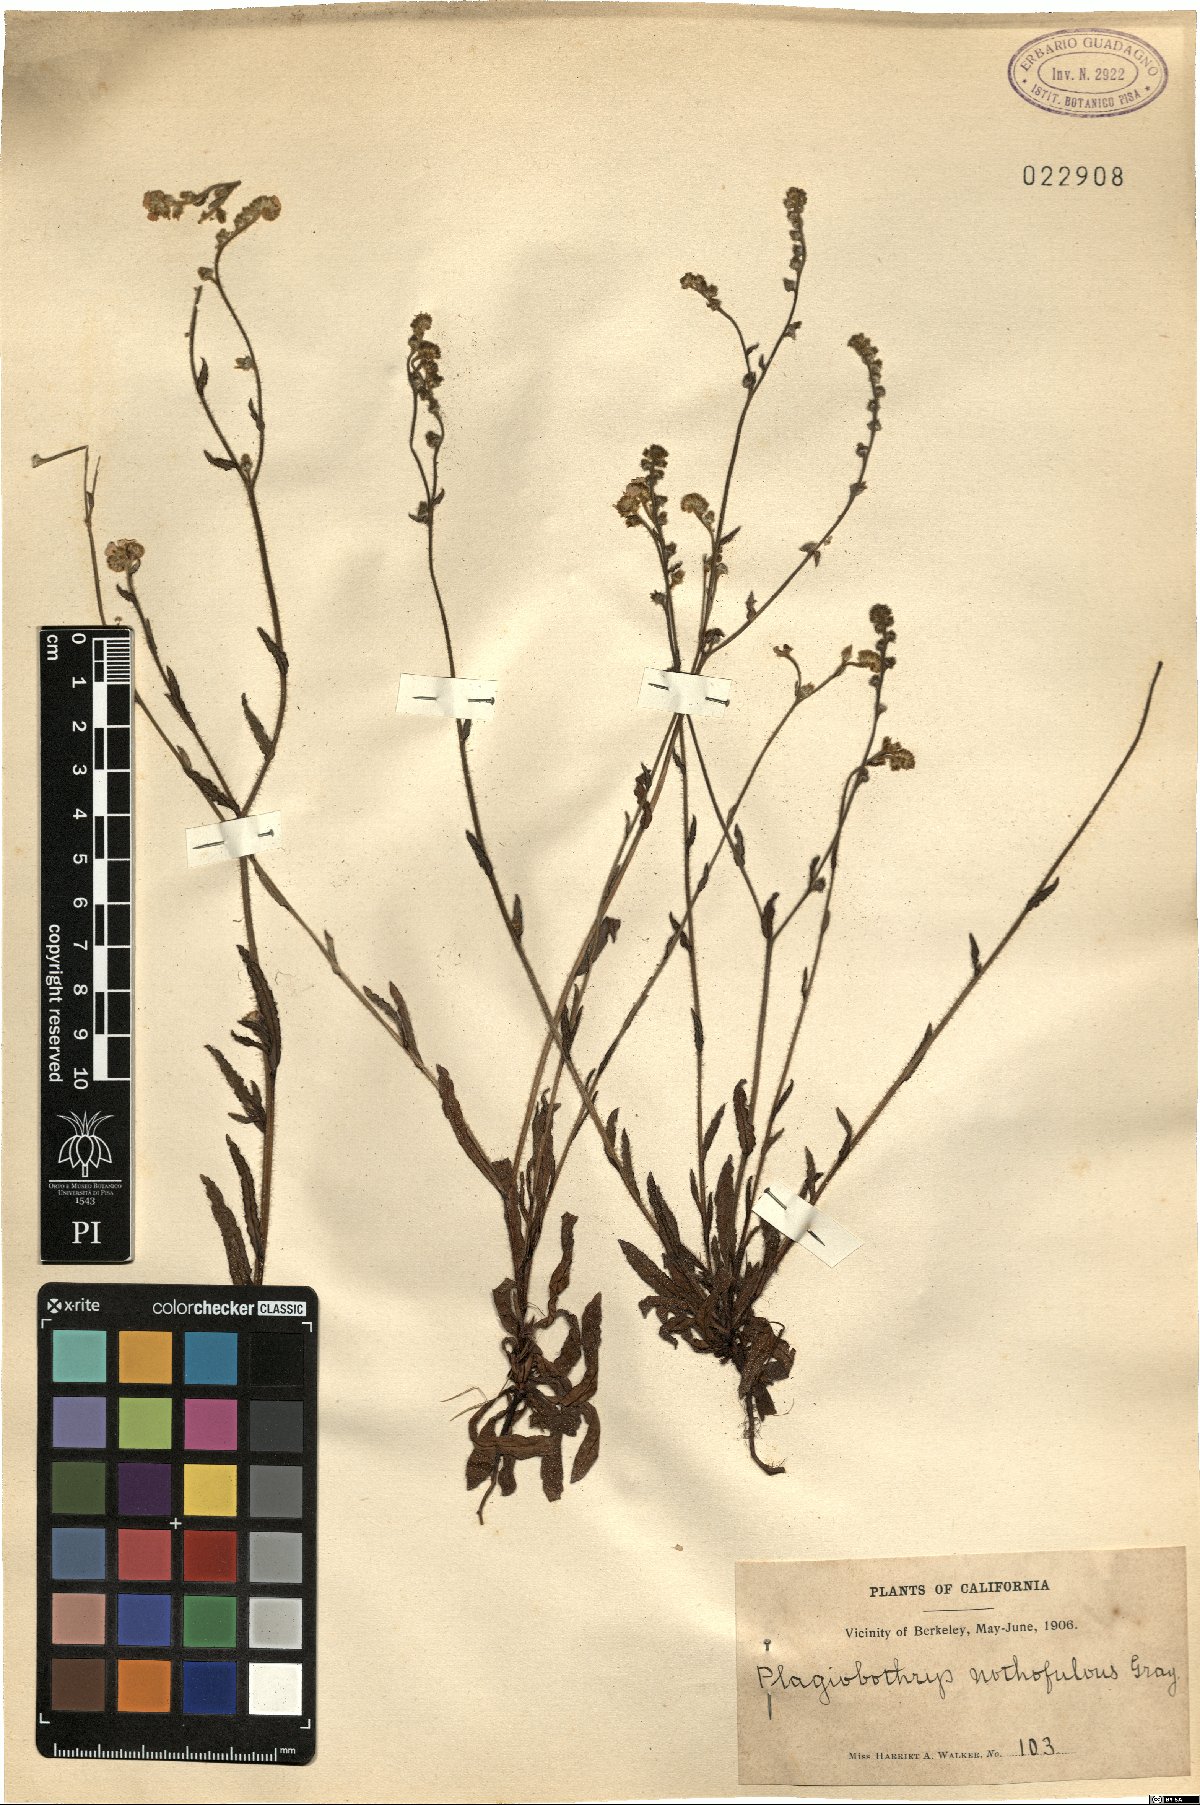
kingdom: Plantae
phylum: Tracheophyta
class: Magnoliopsida
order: Boraginales
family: Boraginaceae
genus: Plagiobothrys
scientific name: Plagiobothrys nothofulvus
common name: Popcorn-flower
